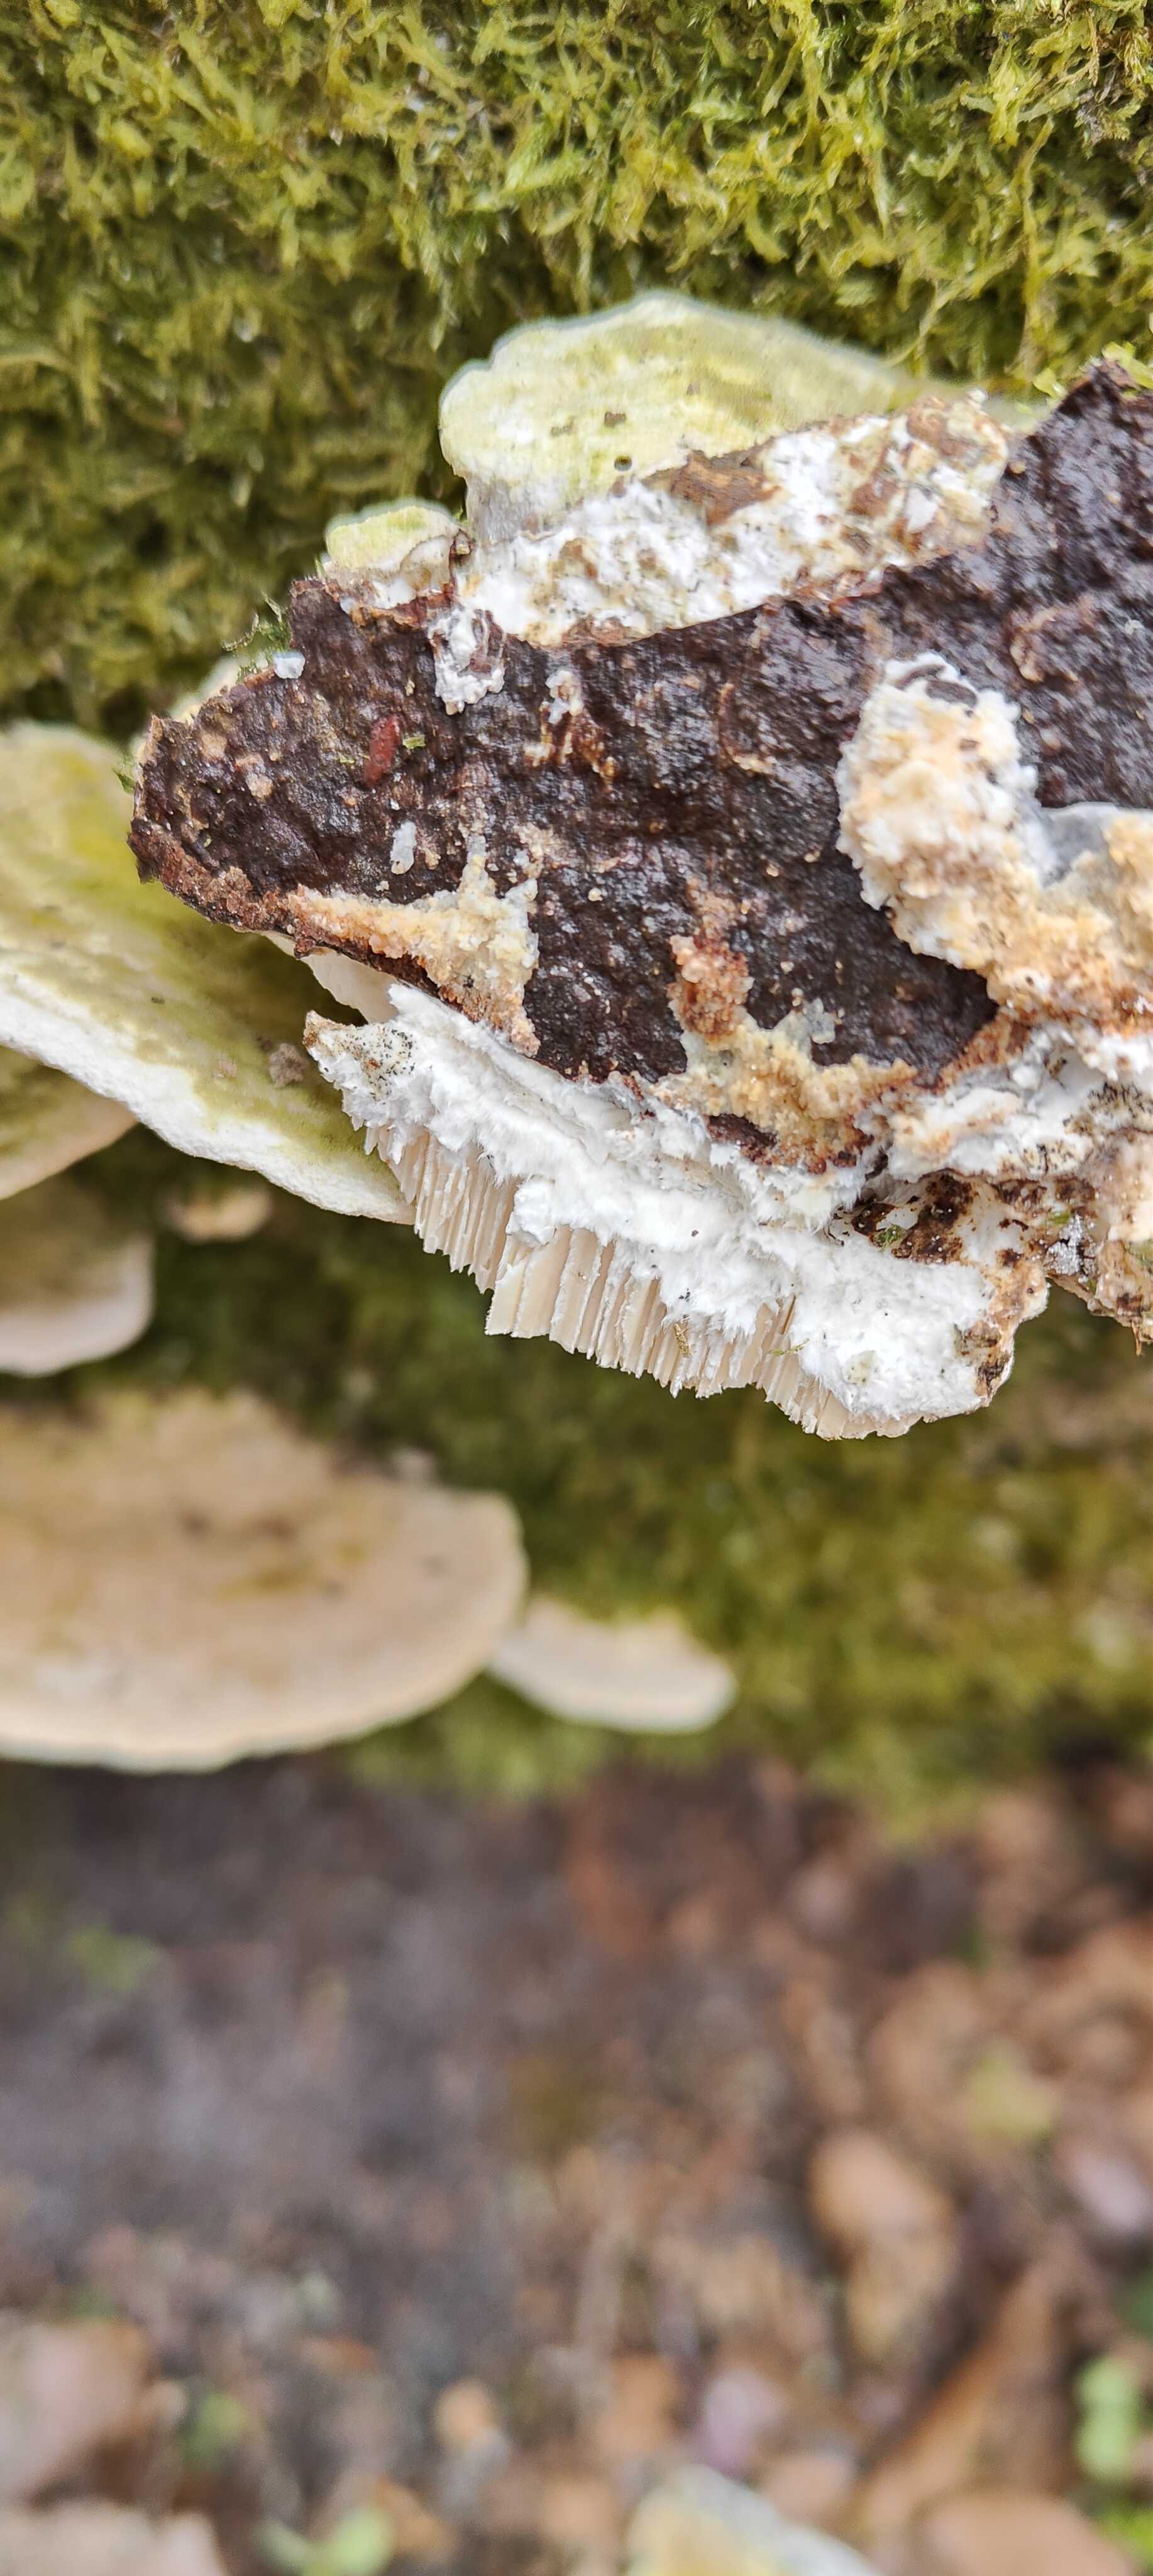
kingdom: Fungi
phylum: Basidiomycota
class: Agaricomycetes
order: Polyporales
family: Polyporaceae
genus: Trametes
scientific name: Trametes gibbosa
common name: puklet læderporesvamp
